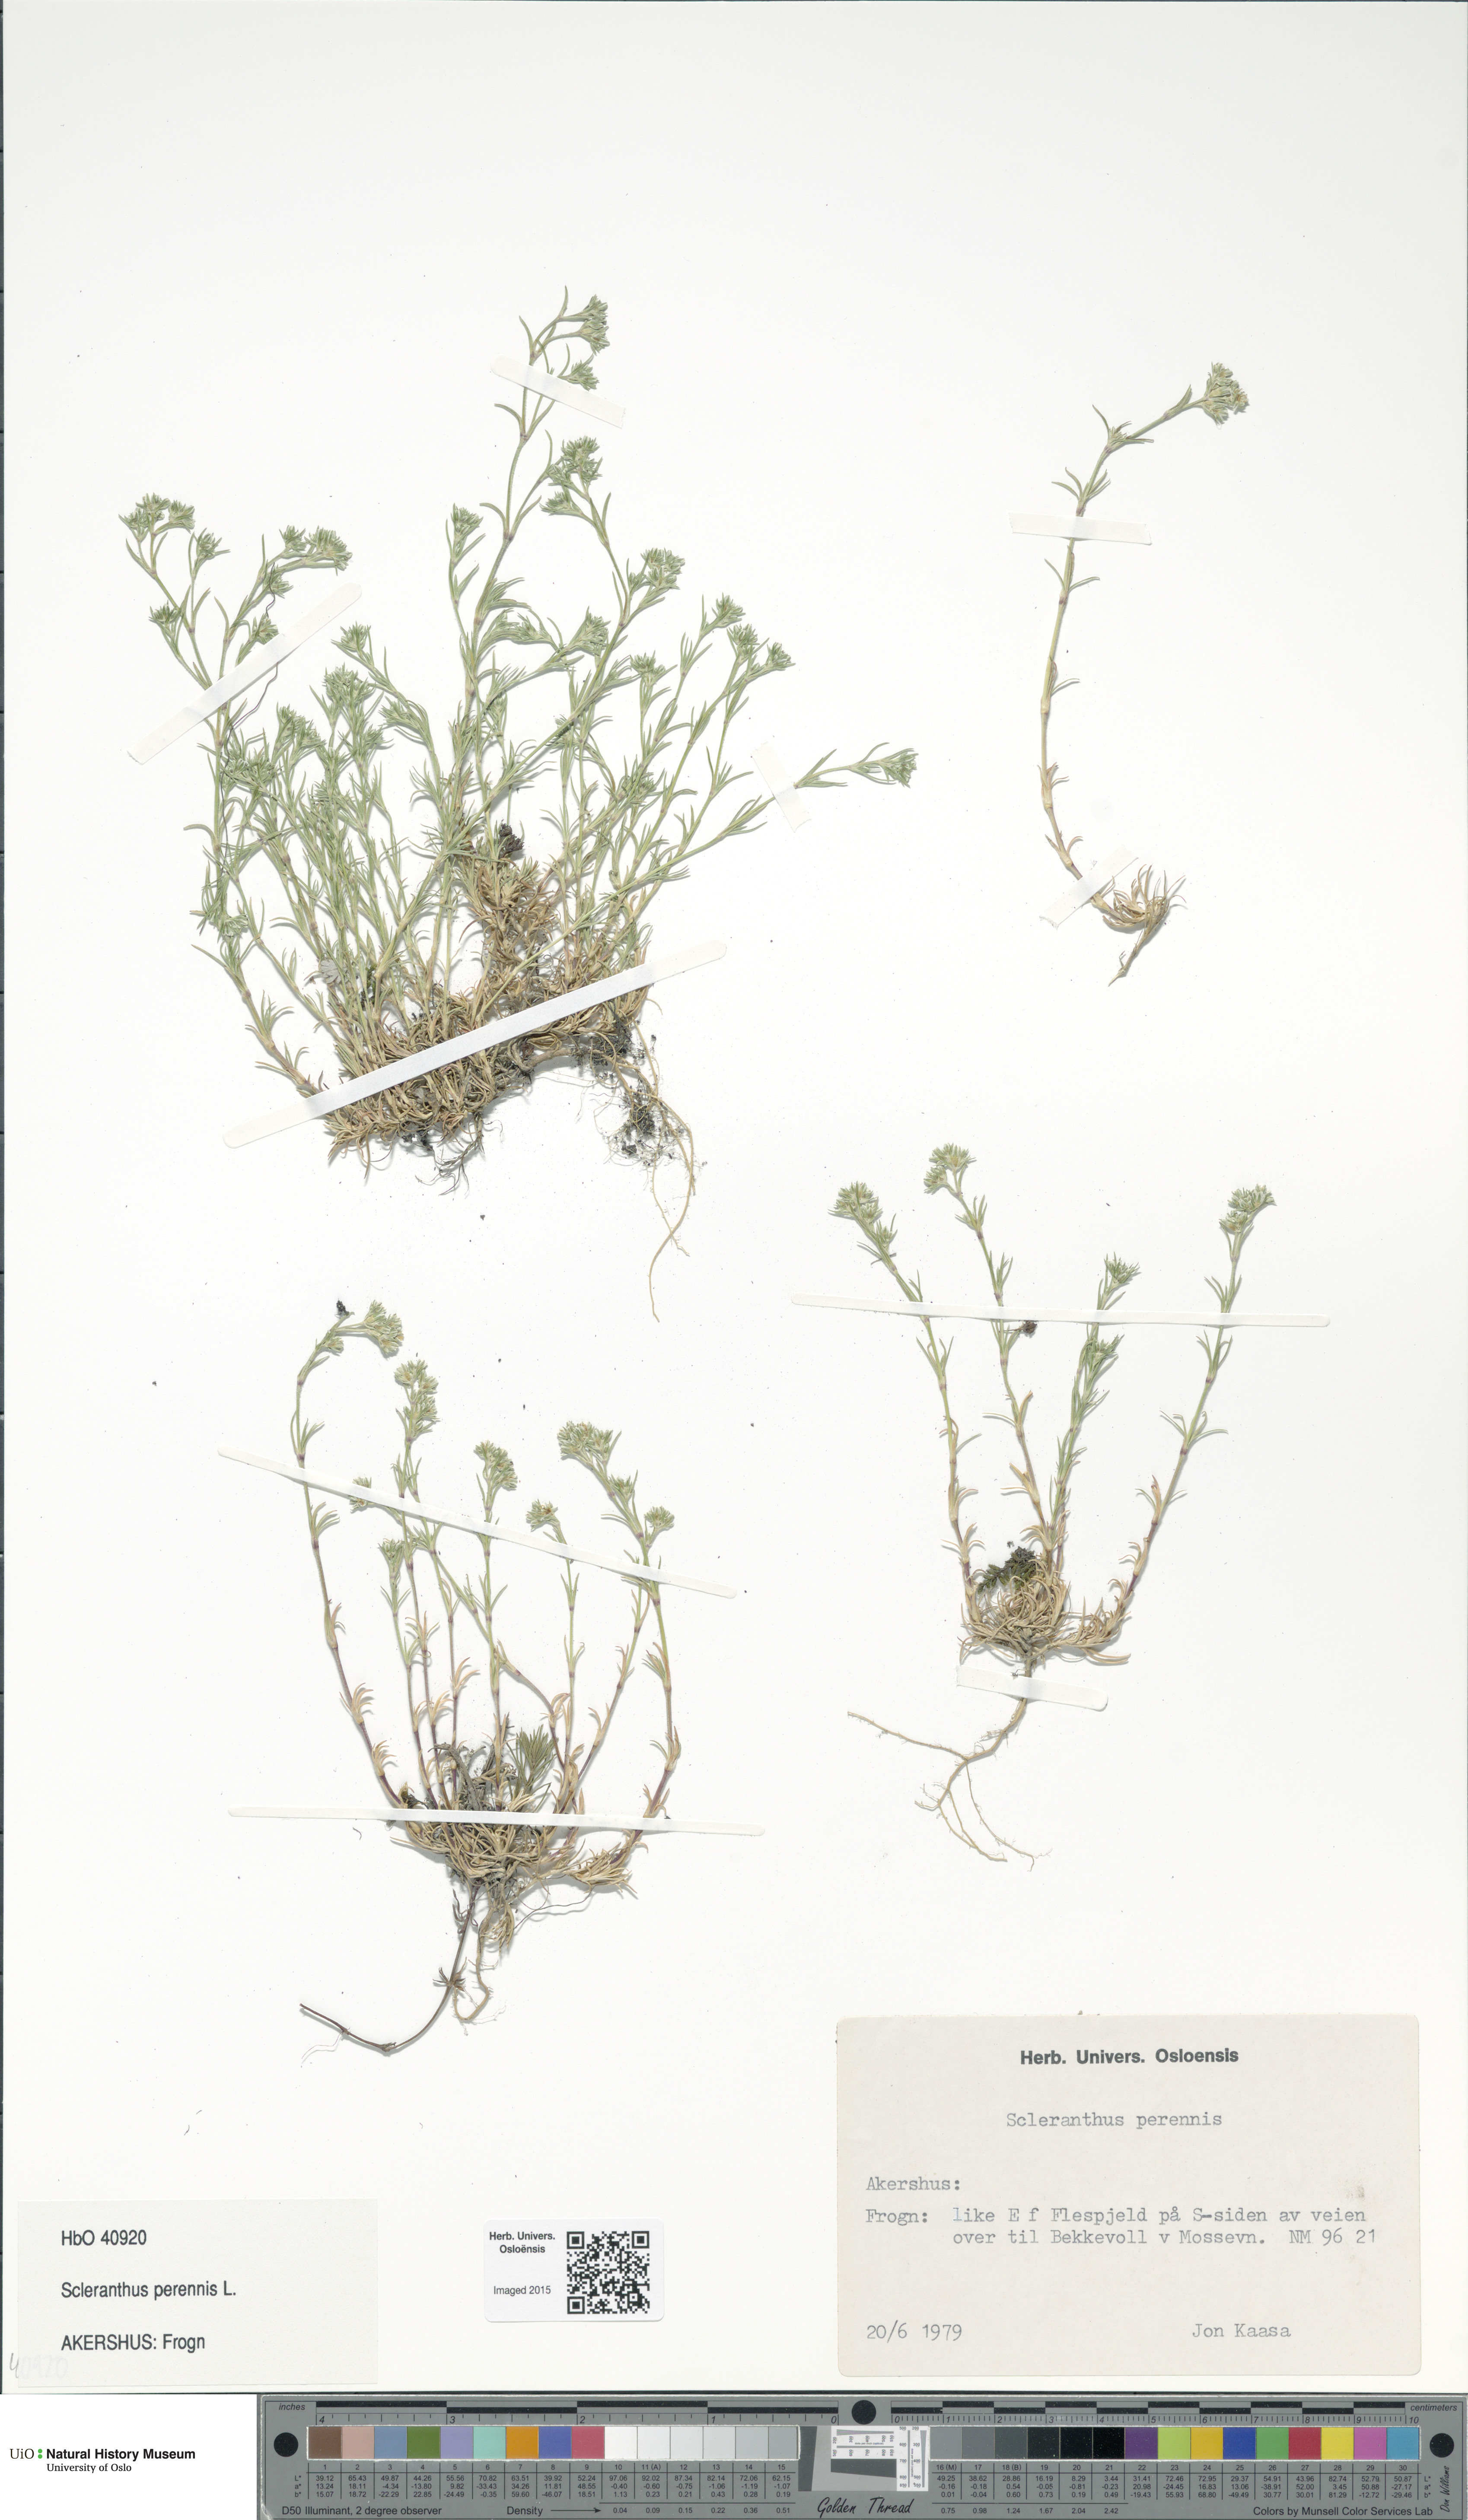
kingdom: Plantae
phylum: Tracheophyta
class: Magnoliopsida
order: Caryophyllales
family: Caryophyllaceae
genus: Scleranthus
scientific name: Scleranthus perennis
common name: Perennial knawel
